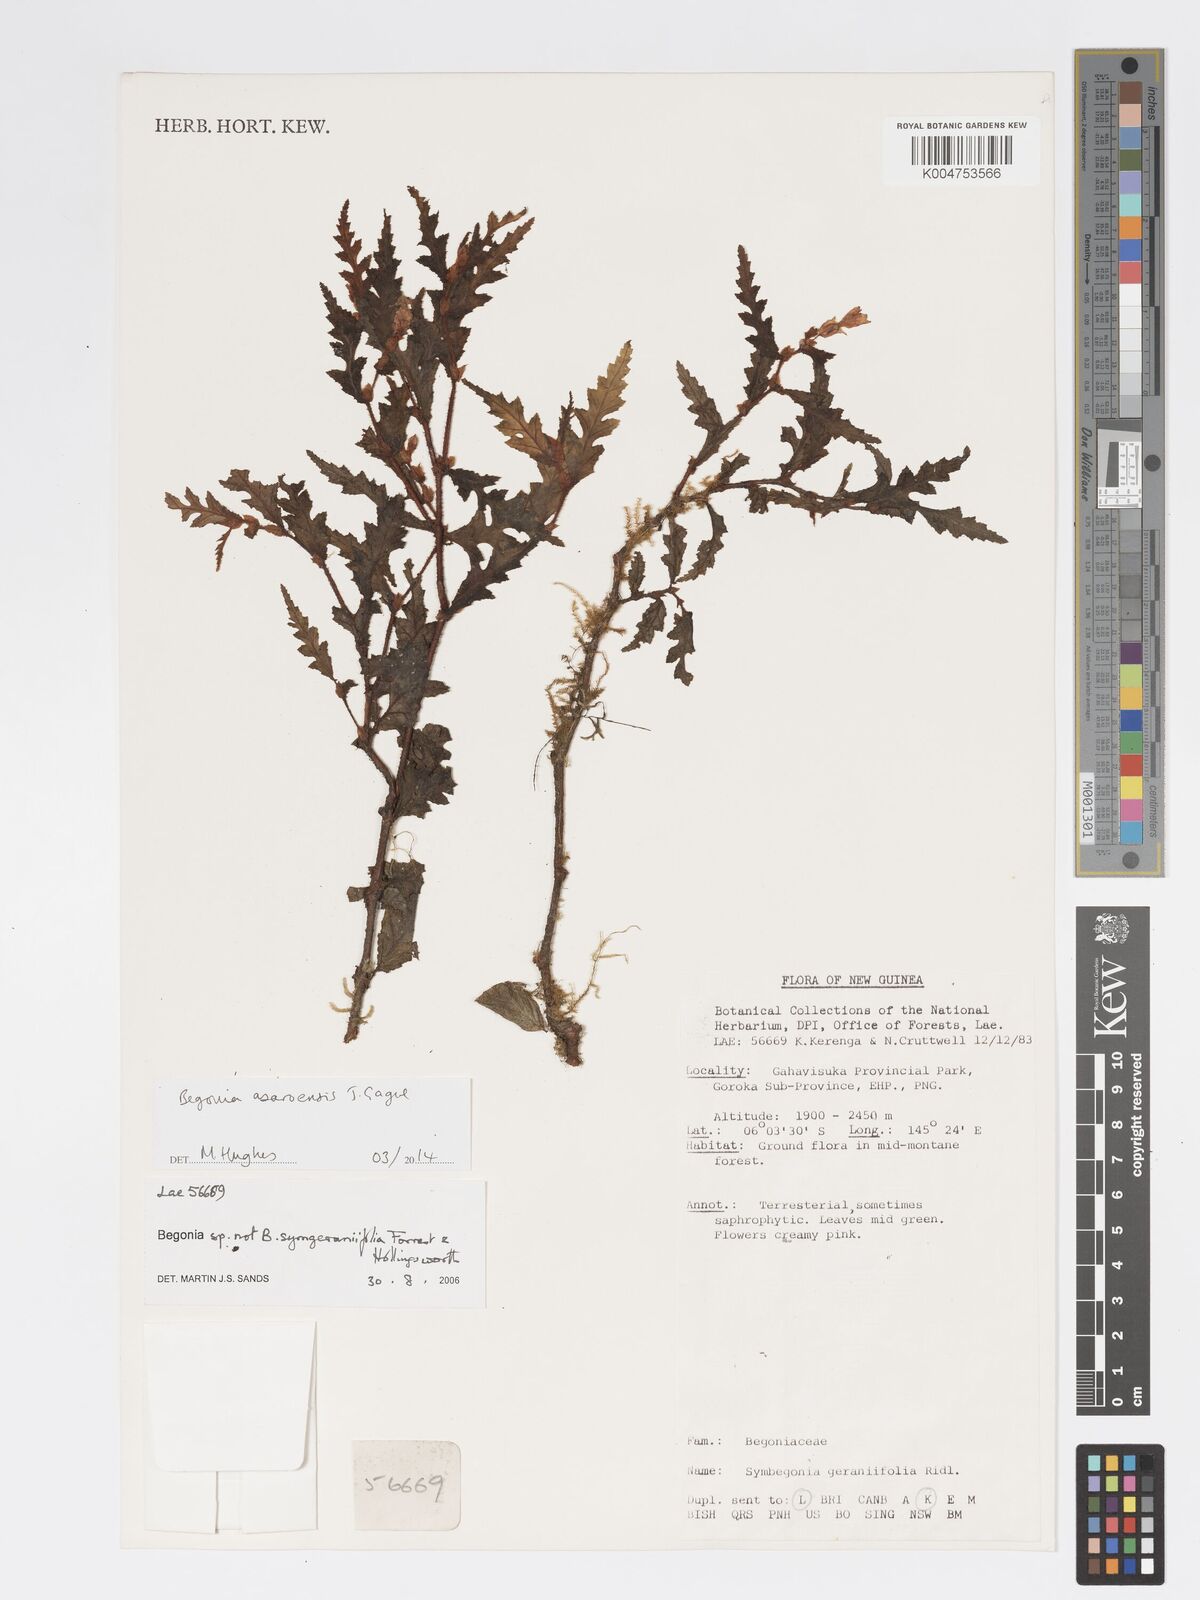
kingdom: Plantae
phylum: Tracheophyta
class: Magnoliopsida
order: Cucurbitales
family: Begoniaceae
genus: Begonia
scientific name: Begonia asaroensis
